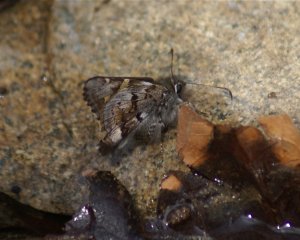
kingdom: Animalia
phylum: Arthropoda
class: Insecta
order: Lepidoptera
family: Hesperiidae
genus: Zestusa
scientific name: Zestusa dorus
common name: Short-tailed Skipper
